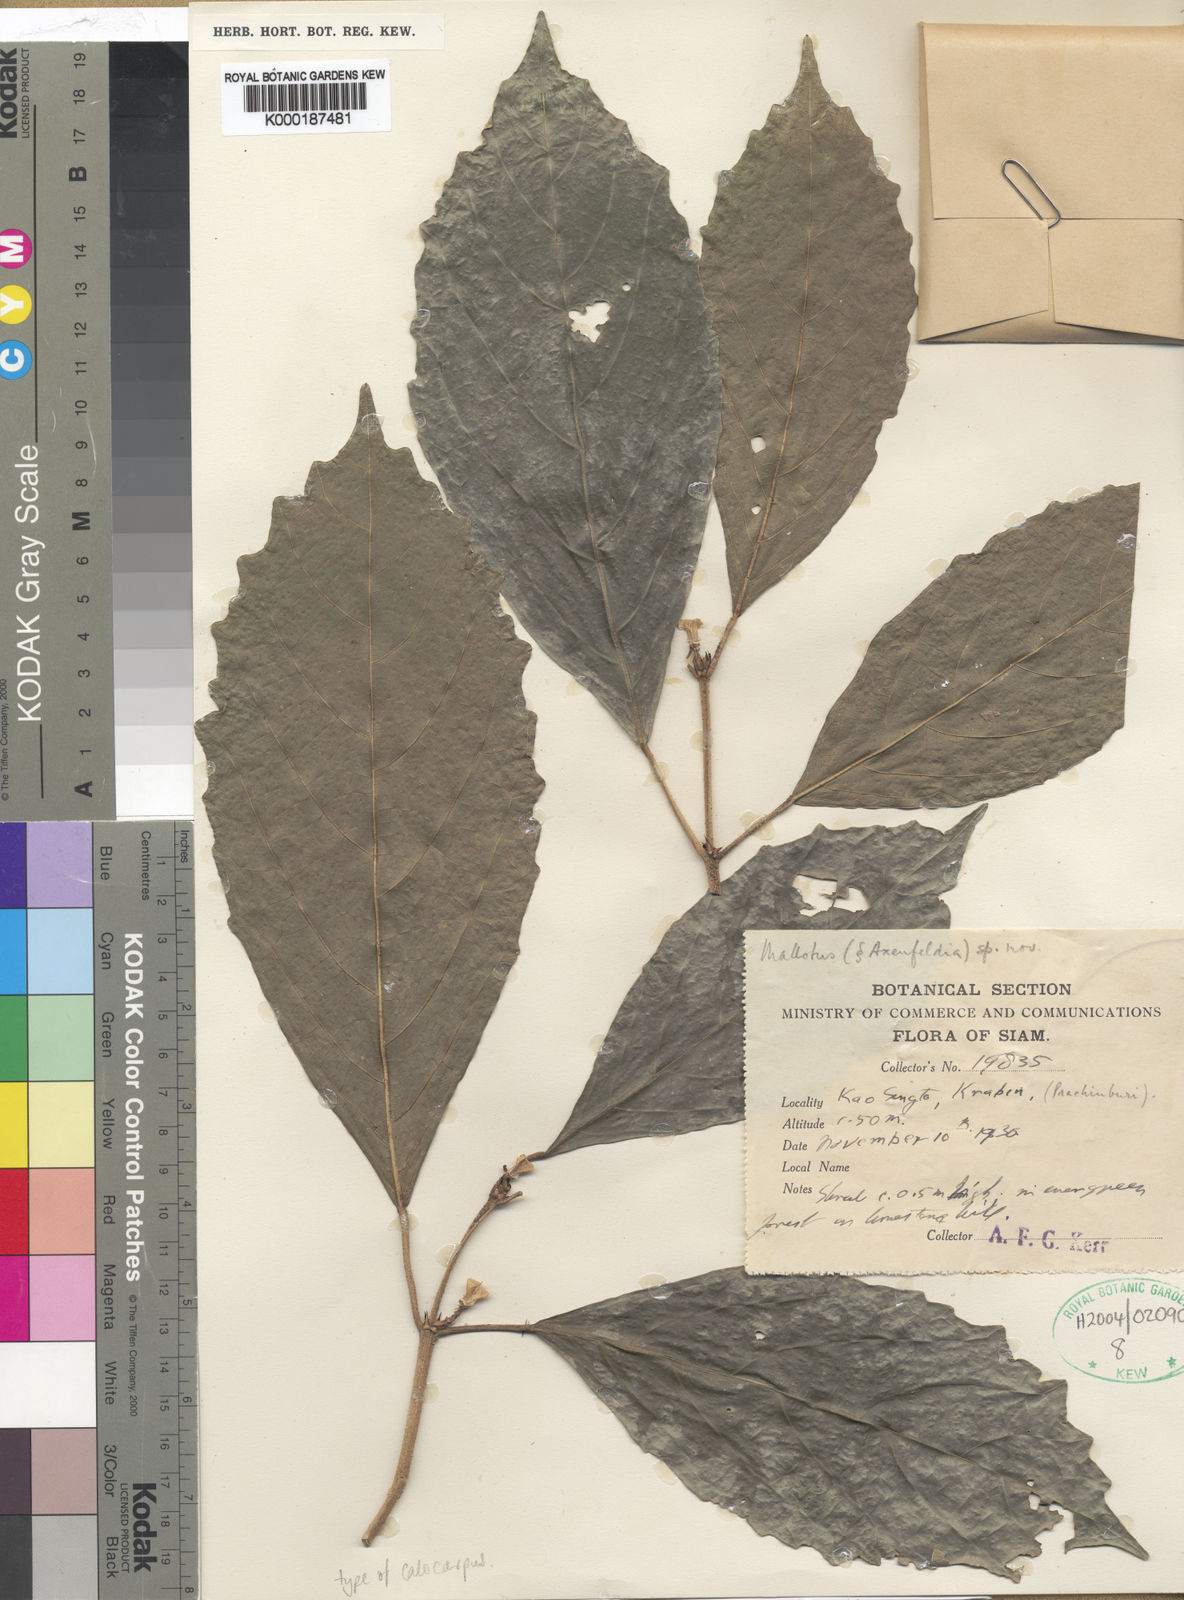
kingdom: Plantae
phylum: Tracheophyta
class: Magnoliopsida
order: Malpighiales
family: Euphorbiaceae
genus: Mallotus
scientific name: Mallotus mirus
